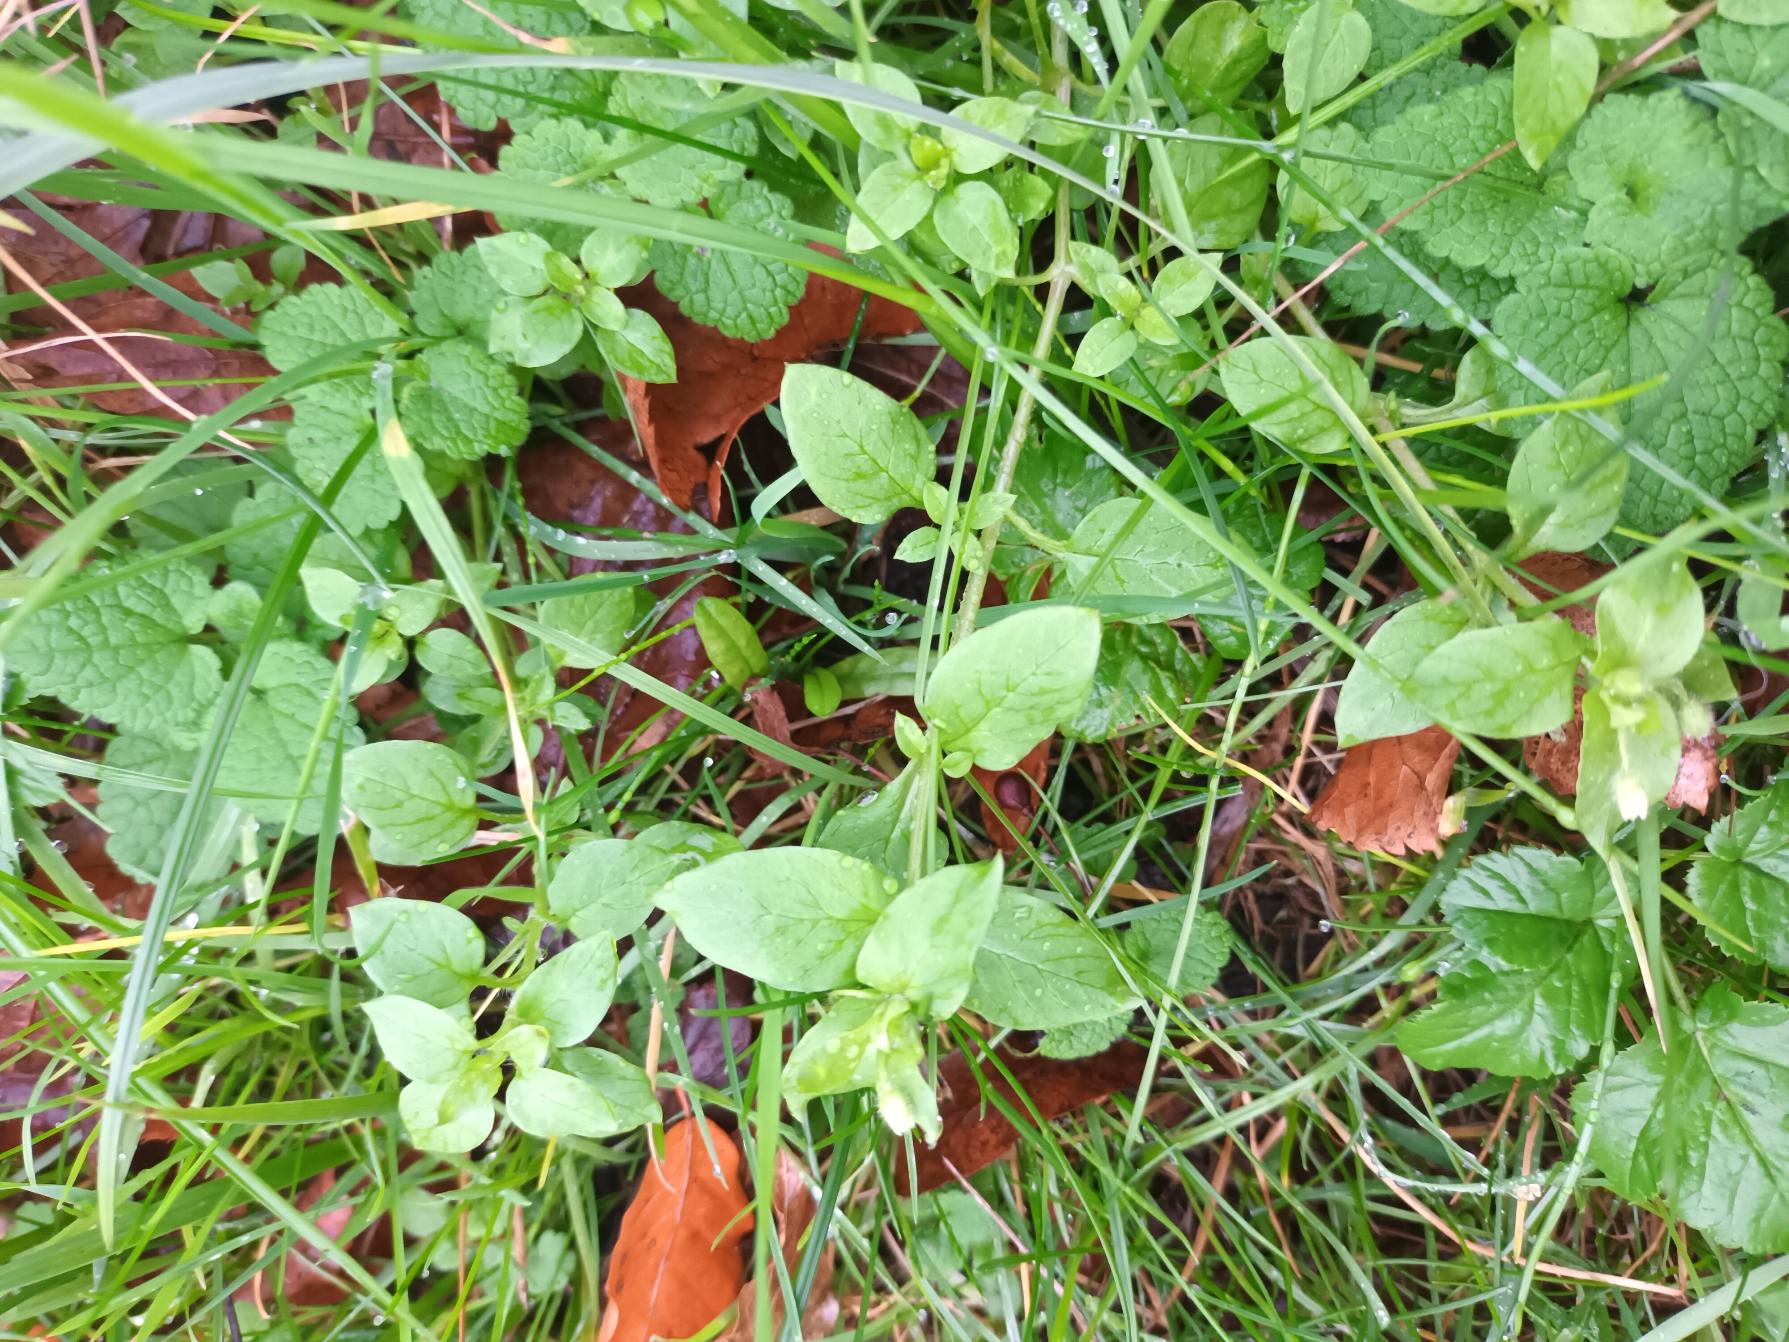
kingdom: Plantae
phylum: Tracheophyta
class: Magnoliopsida
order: Caryophyllales
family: Caryophyllaceae
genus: Stellaria
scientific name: Stellaria media
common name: Almindelig fuglegræs
